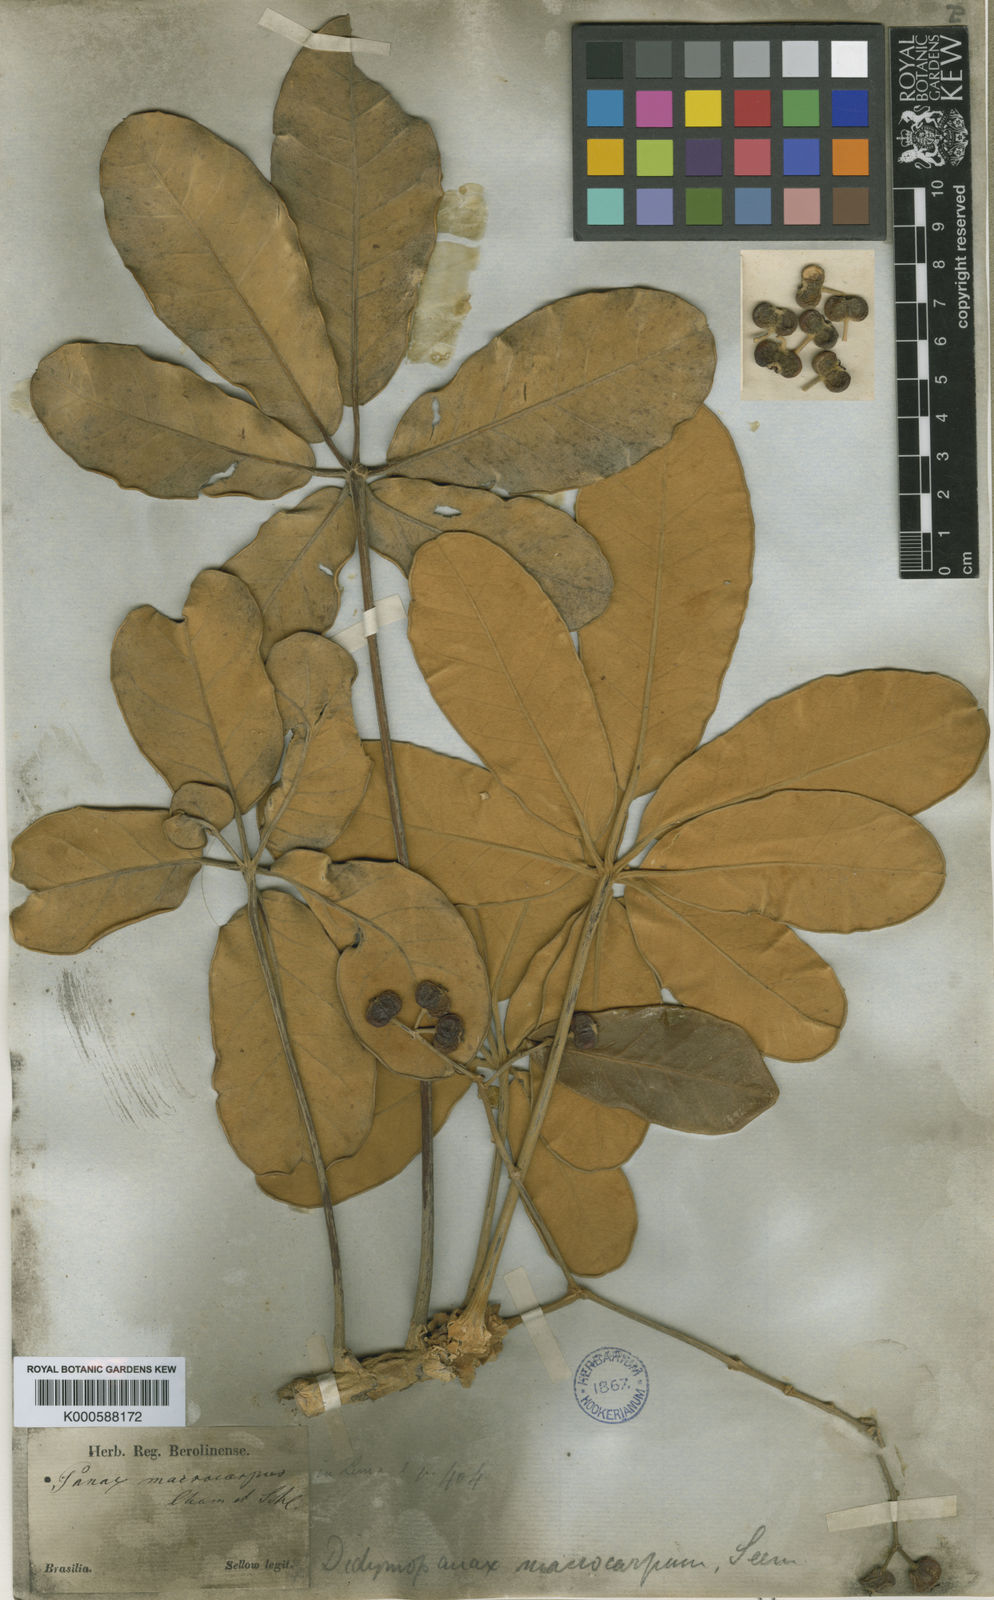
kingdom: Plantae
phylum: Tracheophyta
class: Magnoliopsida
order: Apiales
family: Araliaceae
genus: Didymopanax
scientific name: Didymopanax macrocarpus
